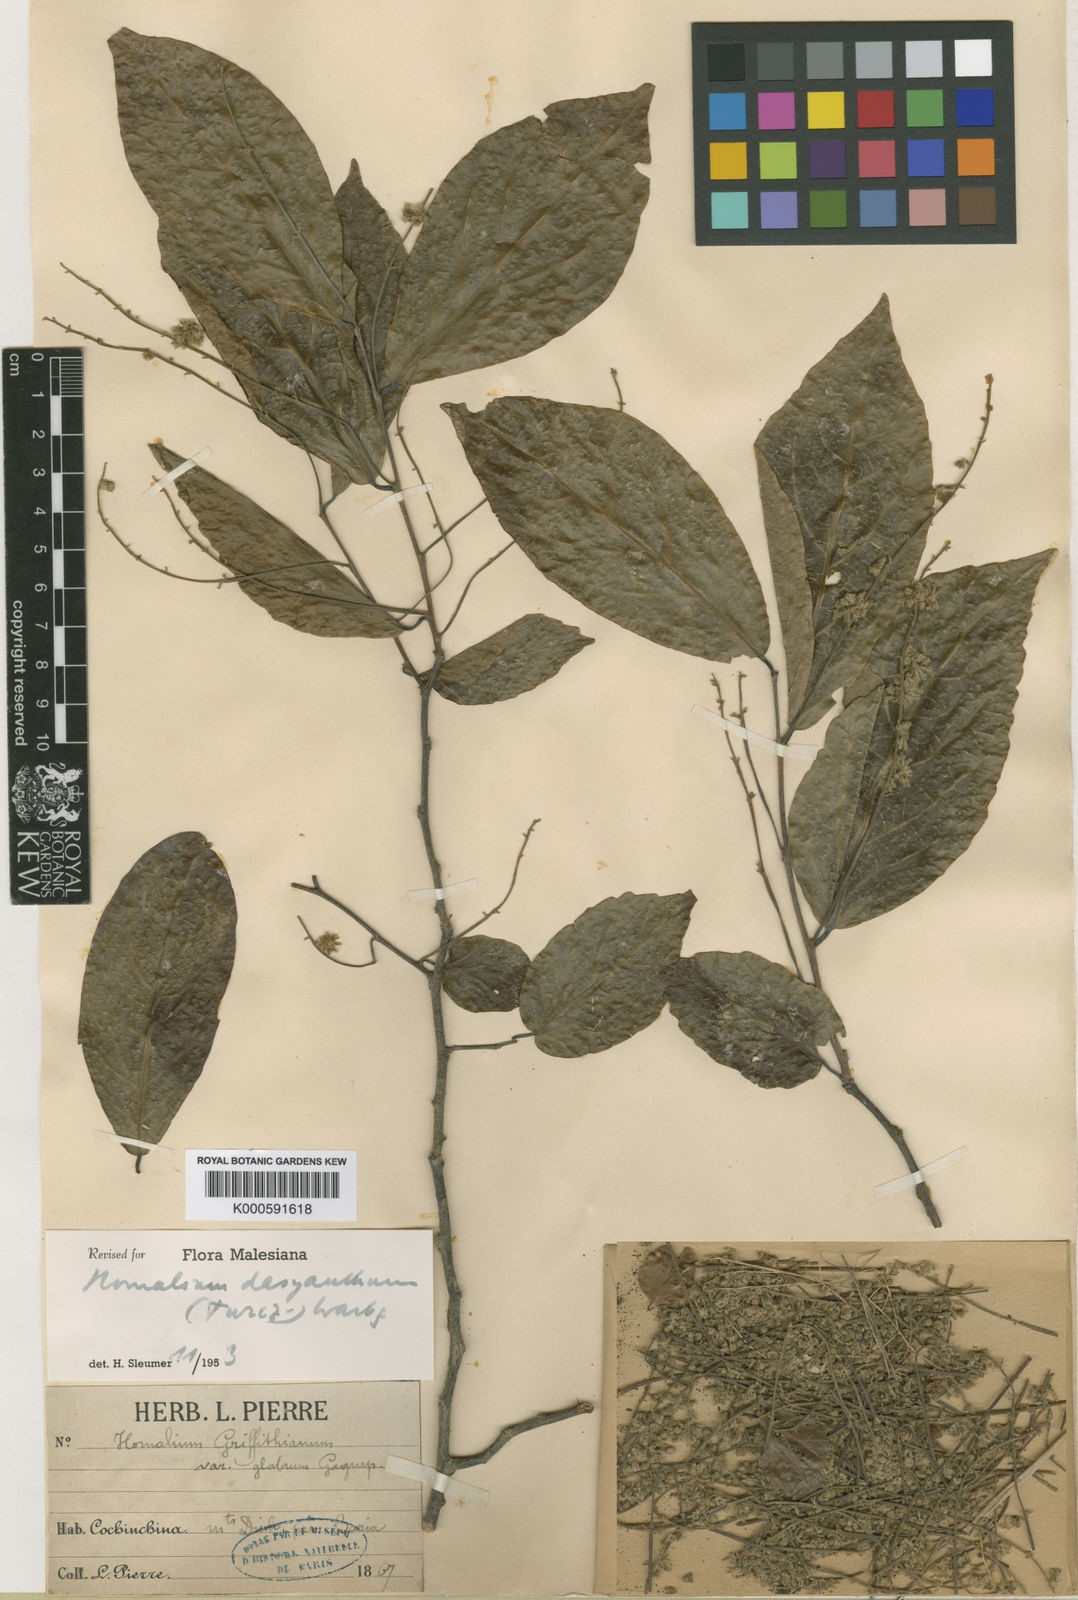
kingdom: Plantae
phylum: Tracheophyta
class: Magnoliopsida
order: Malpighiales
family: Salicaceae
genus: Homalium
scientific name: Homalium
